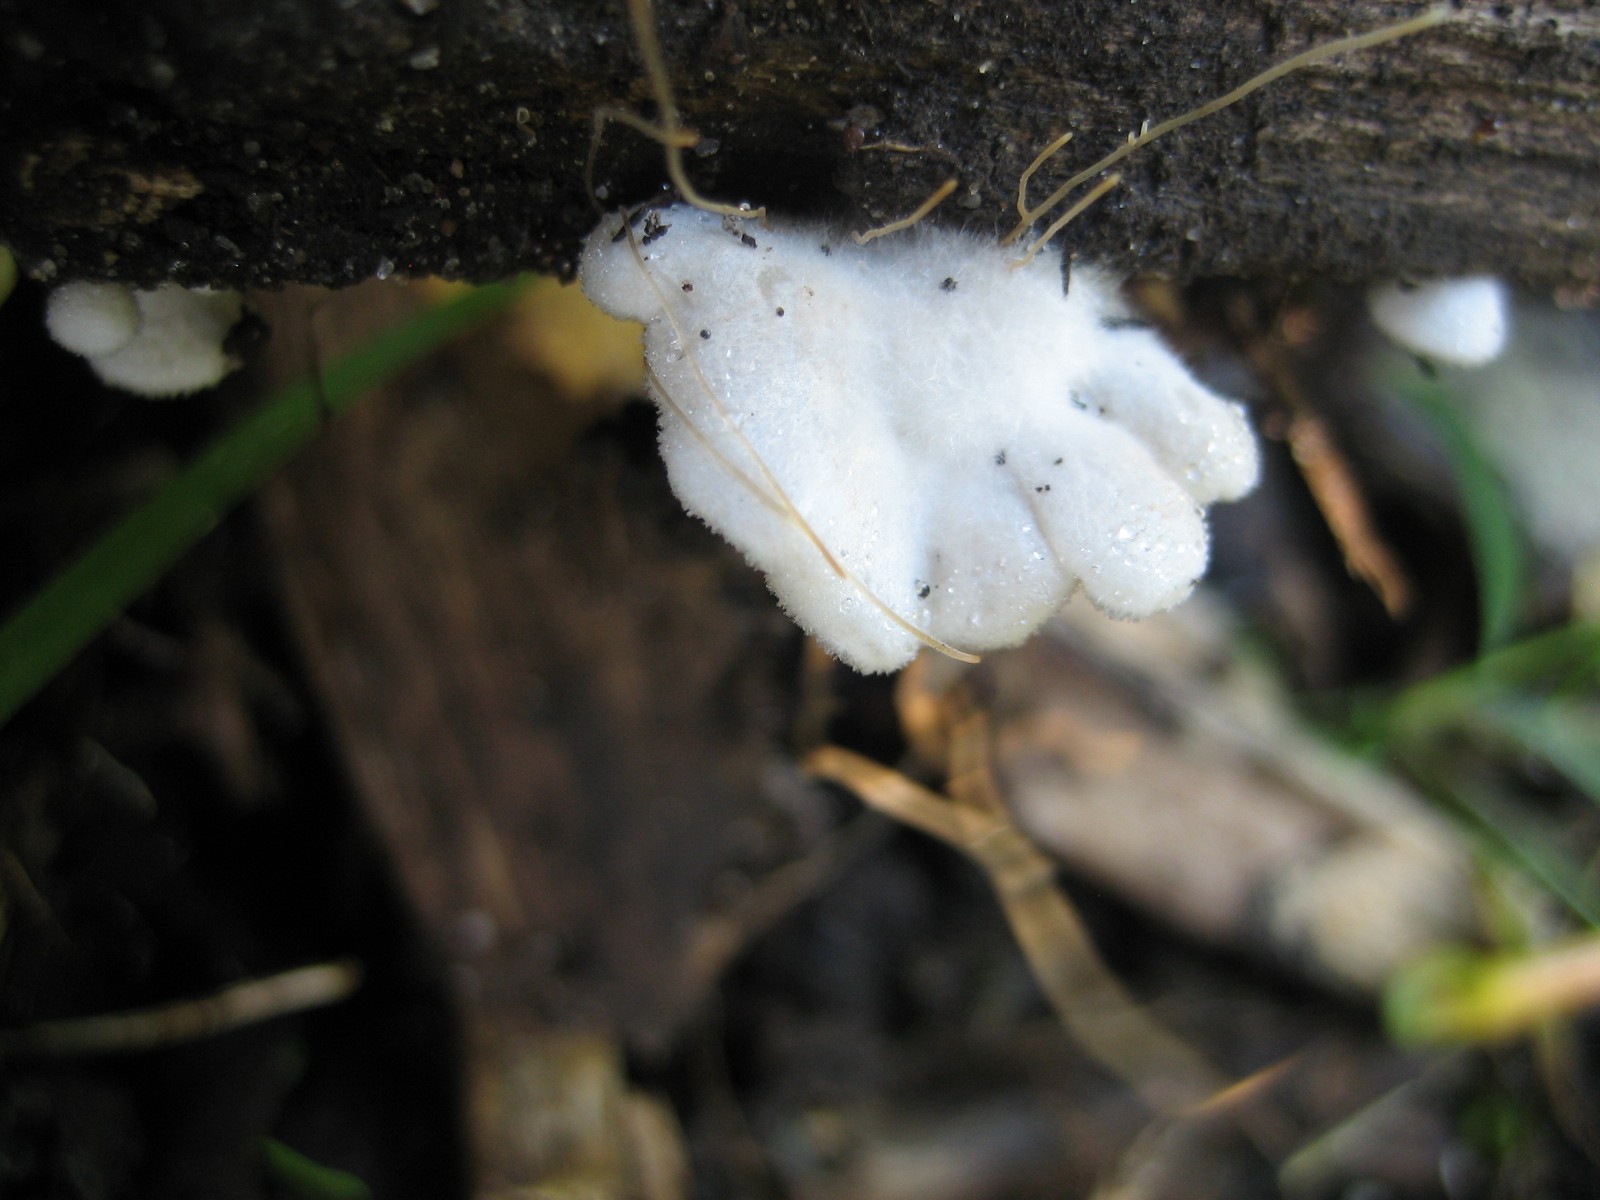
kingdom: Fungi
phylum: Basidiomycota
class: Agaricomycetes
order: Agaricales
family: Crepidotaceae
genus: Crepidotus
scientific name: Crepidotus
